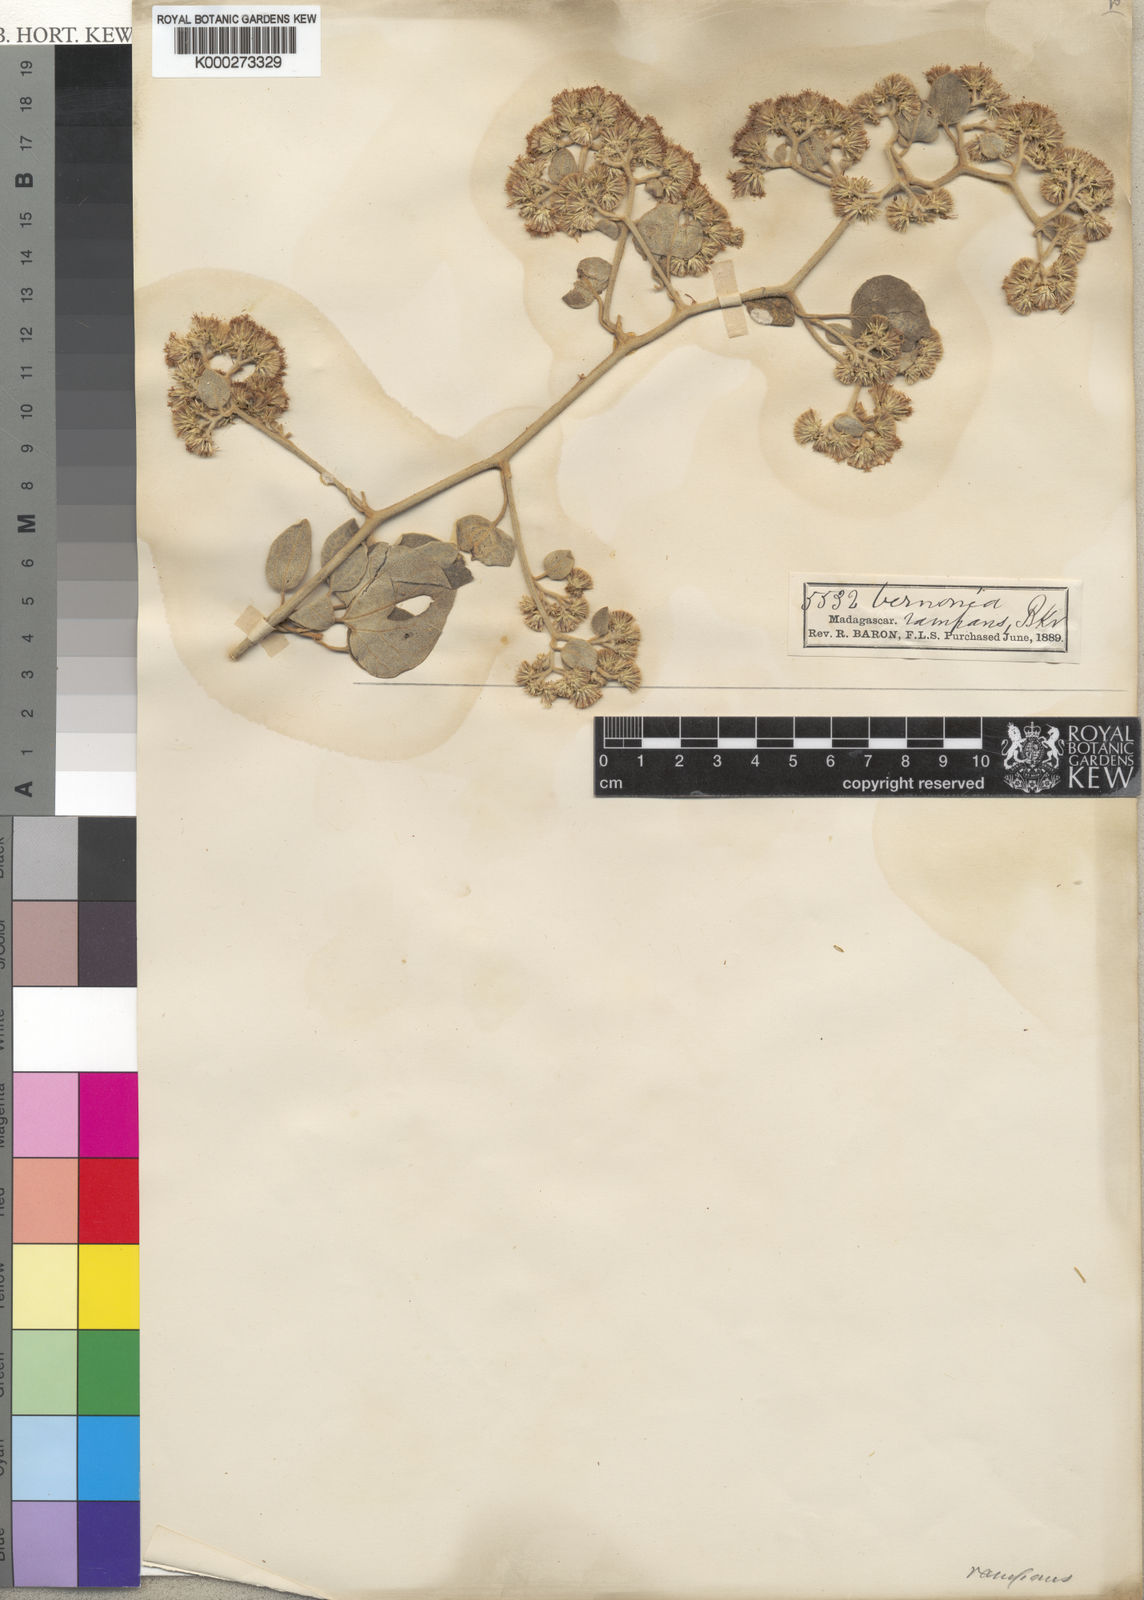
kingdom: Plantae
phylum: Tracheophyta
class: Magnoliopsida
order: Asterales
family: Asteraceae
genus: Distephanus
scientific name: Distephanus malacophytus
